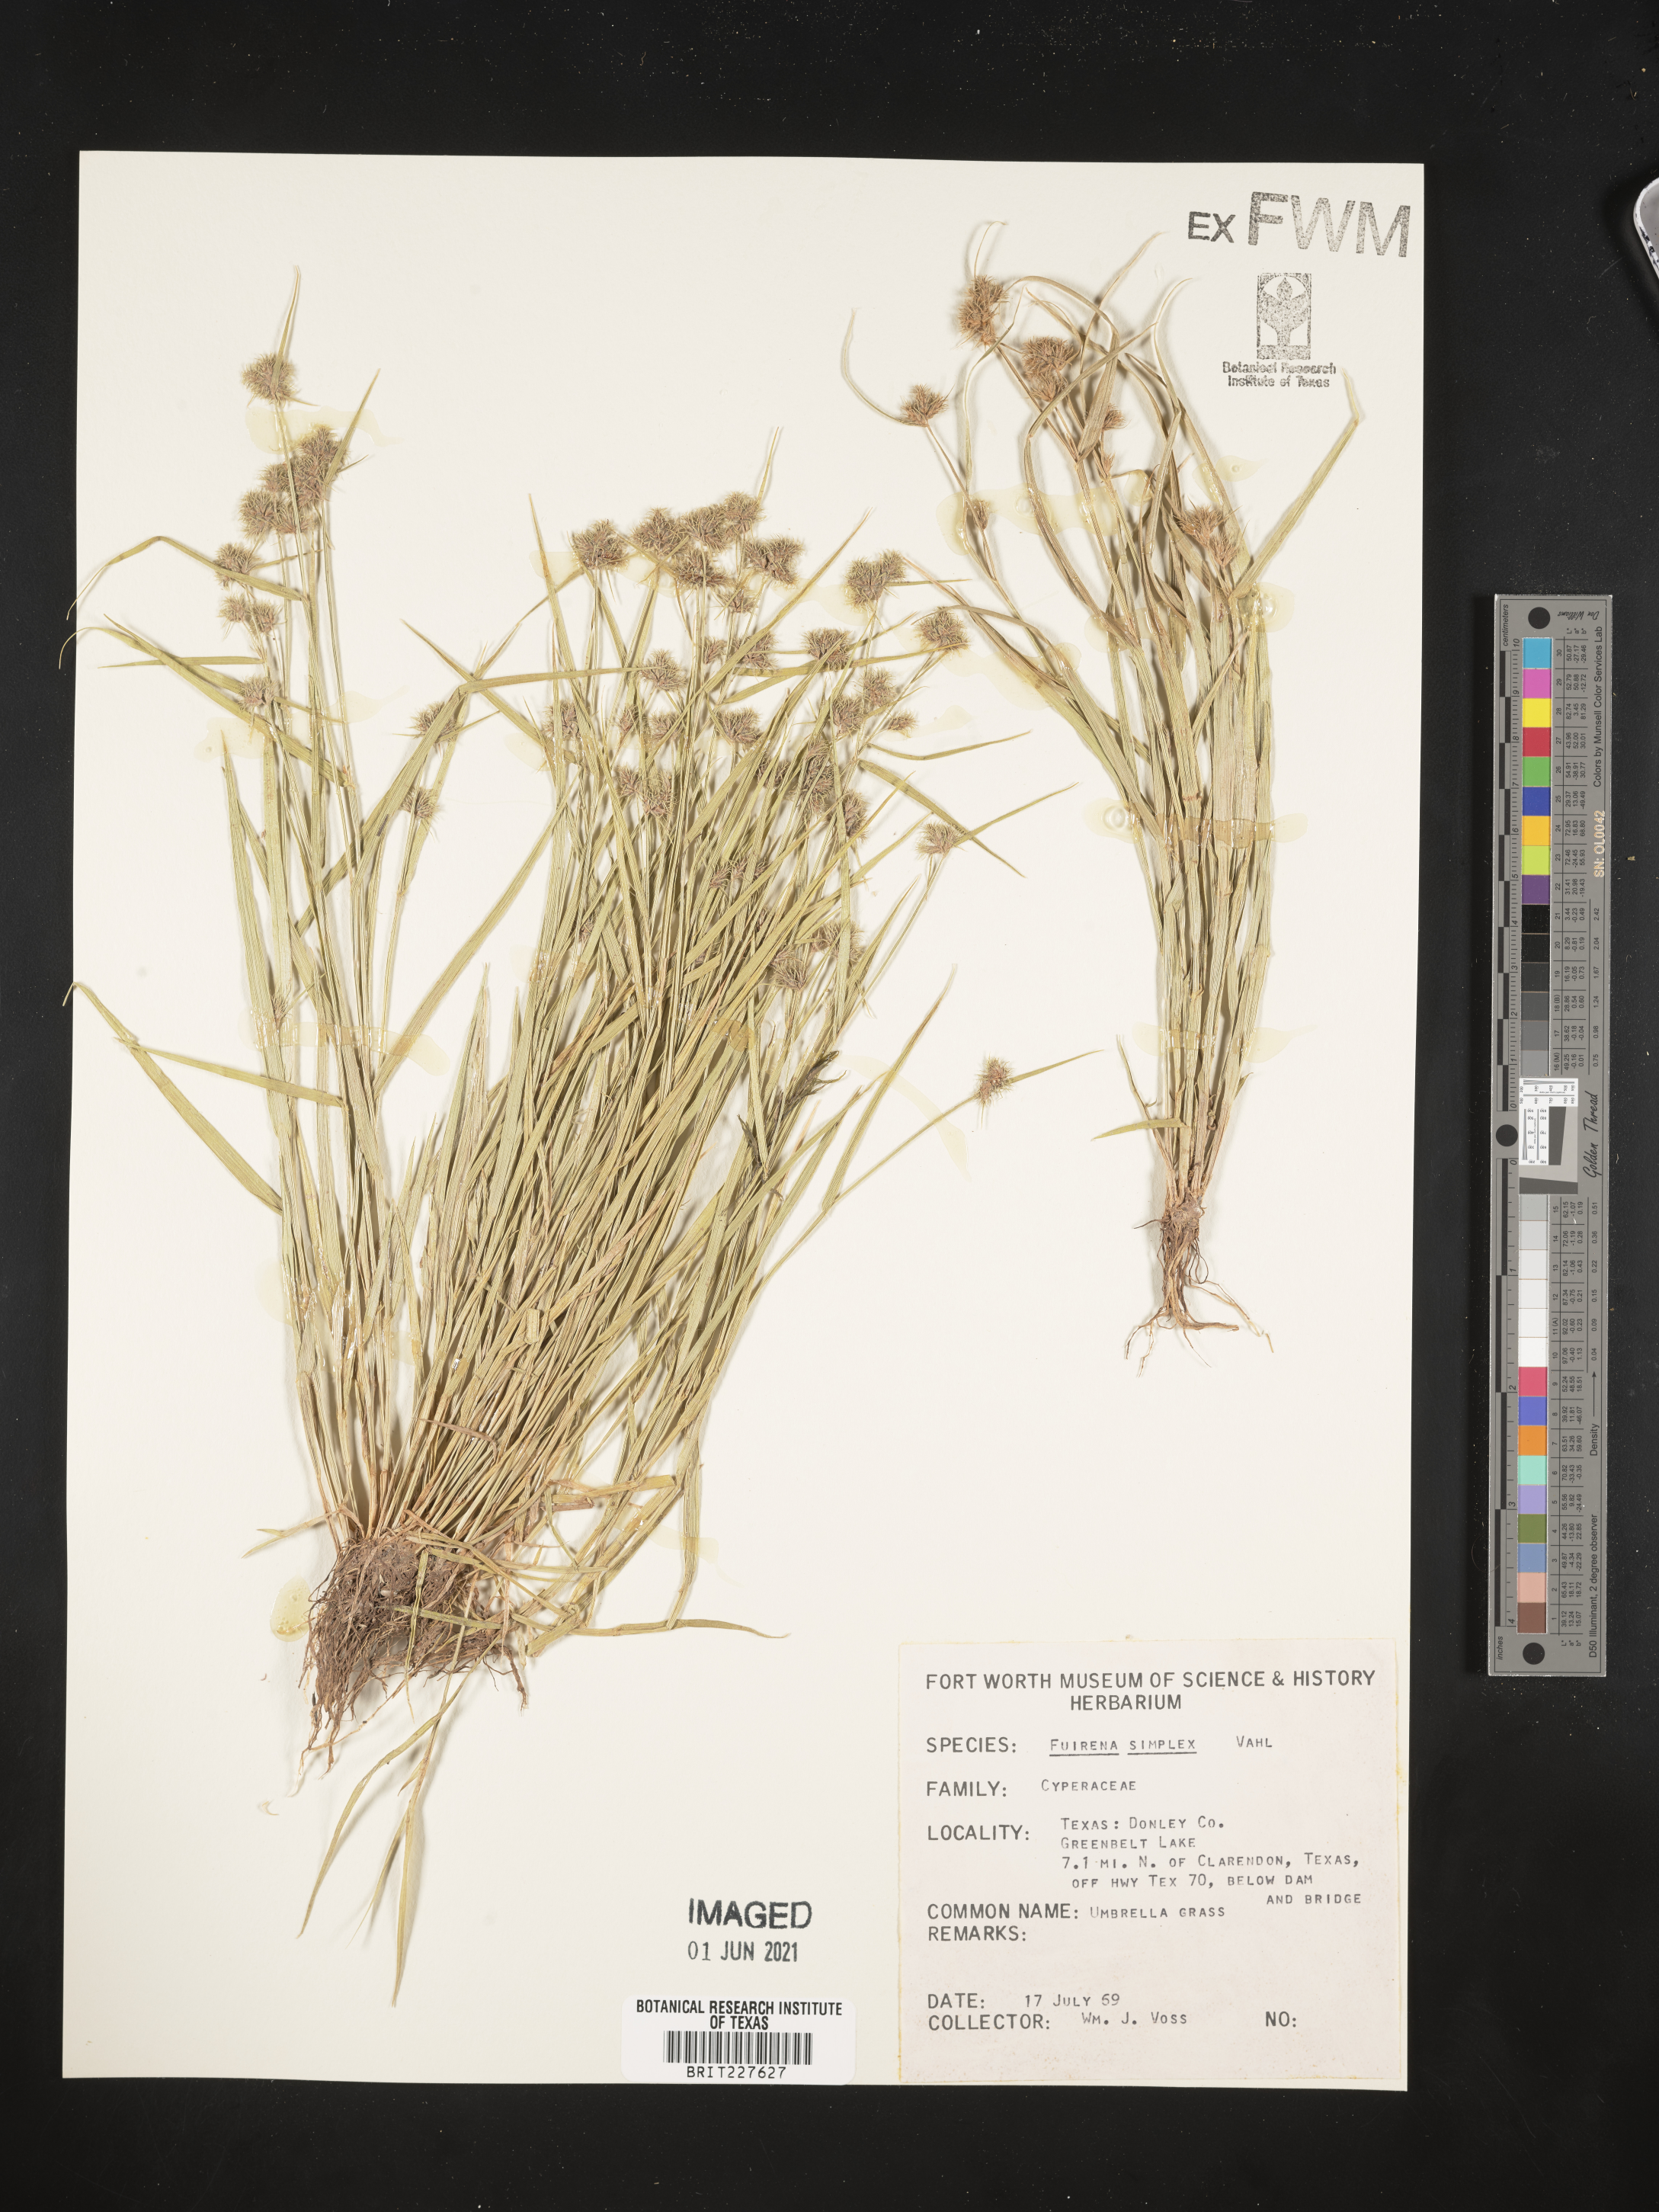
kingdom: Plantae
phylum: Tracheophyta
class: Liliopsida
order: Poales
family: Cyperaceae
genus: Fuirena
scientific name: Fuirena simplex
